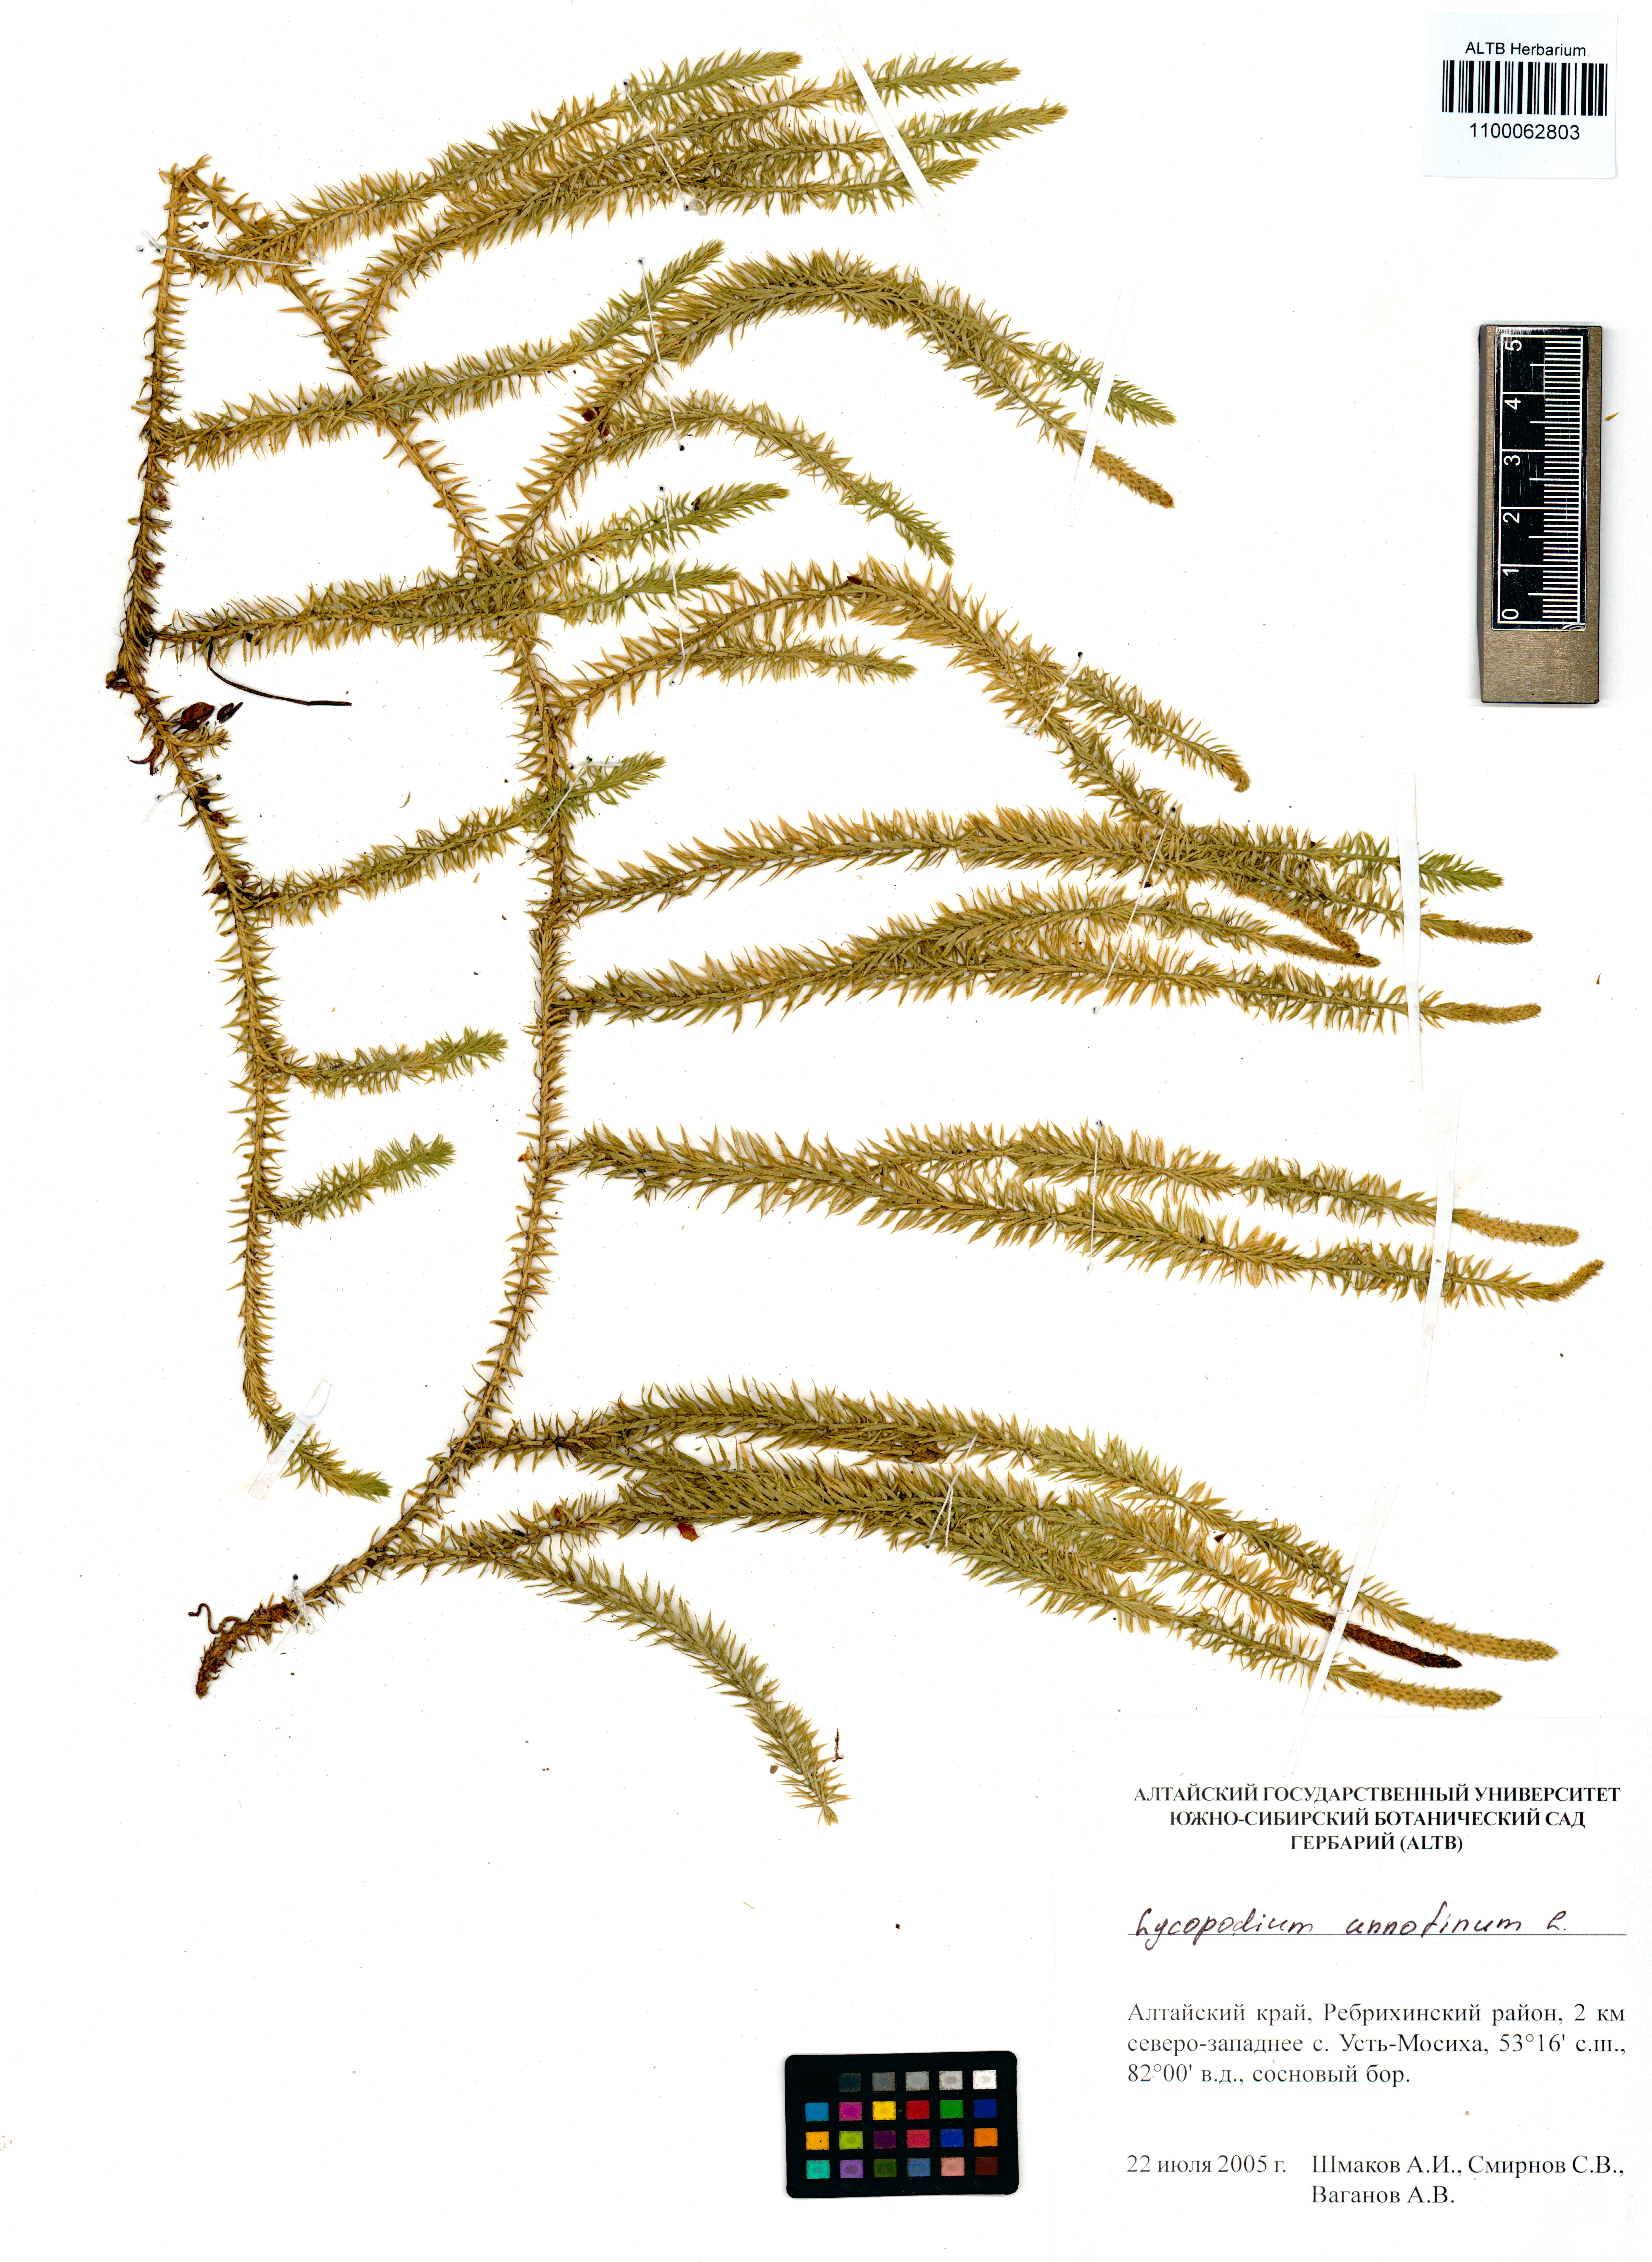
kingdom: Plantae
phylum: Tracheophyta
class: Lycopodiopsida
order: Lycopodiales
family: Lycopodiaceae
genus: Spinulum
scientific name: Spinulum annotinum
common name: Interrupted club-moss
